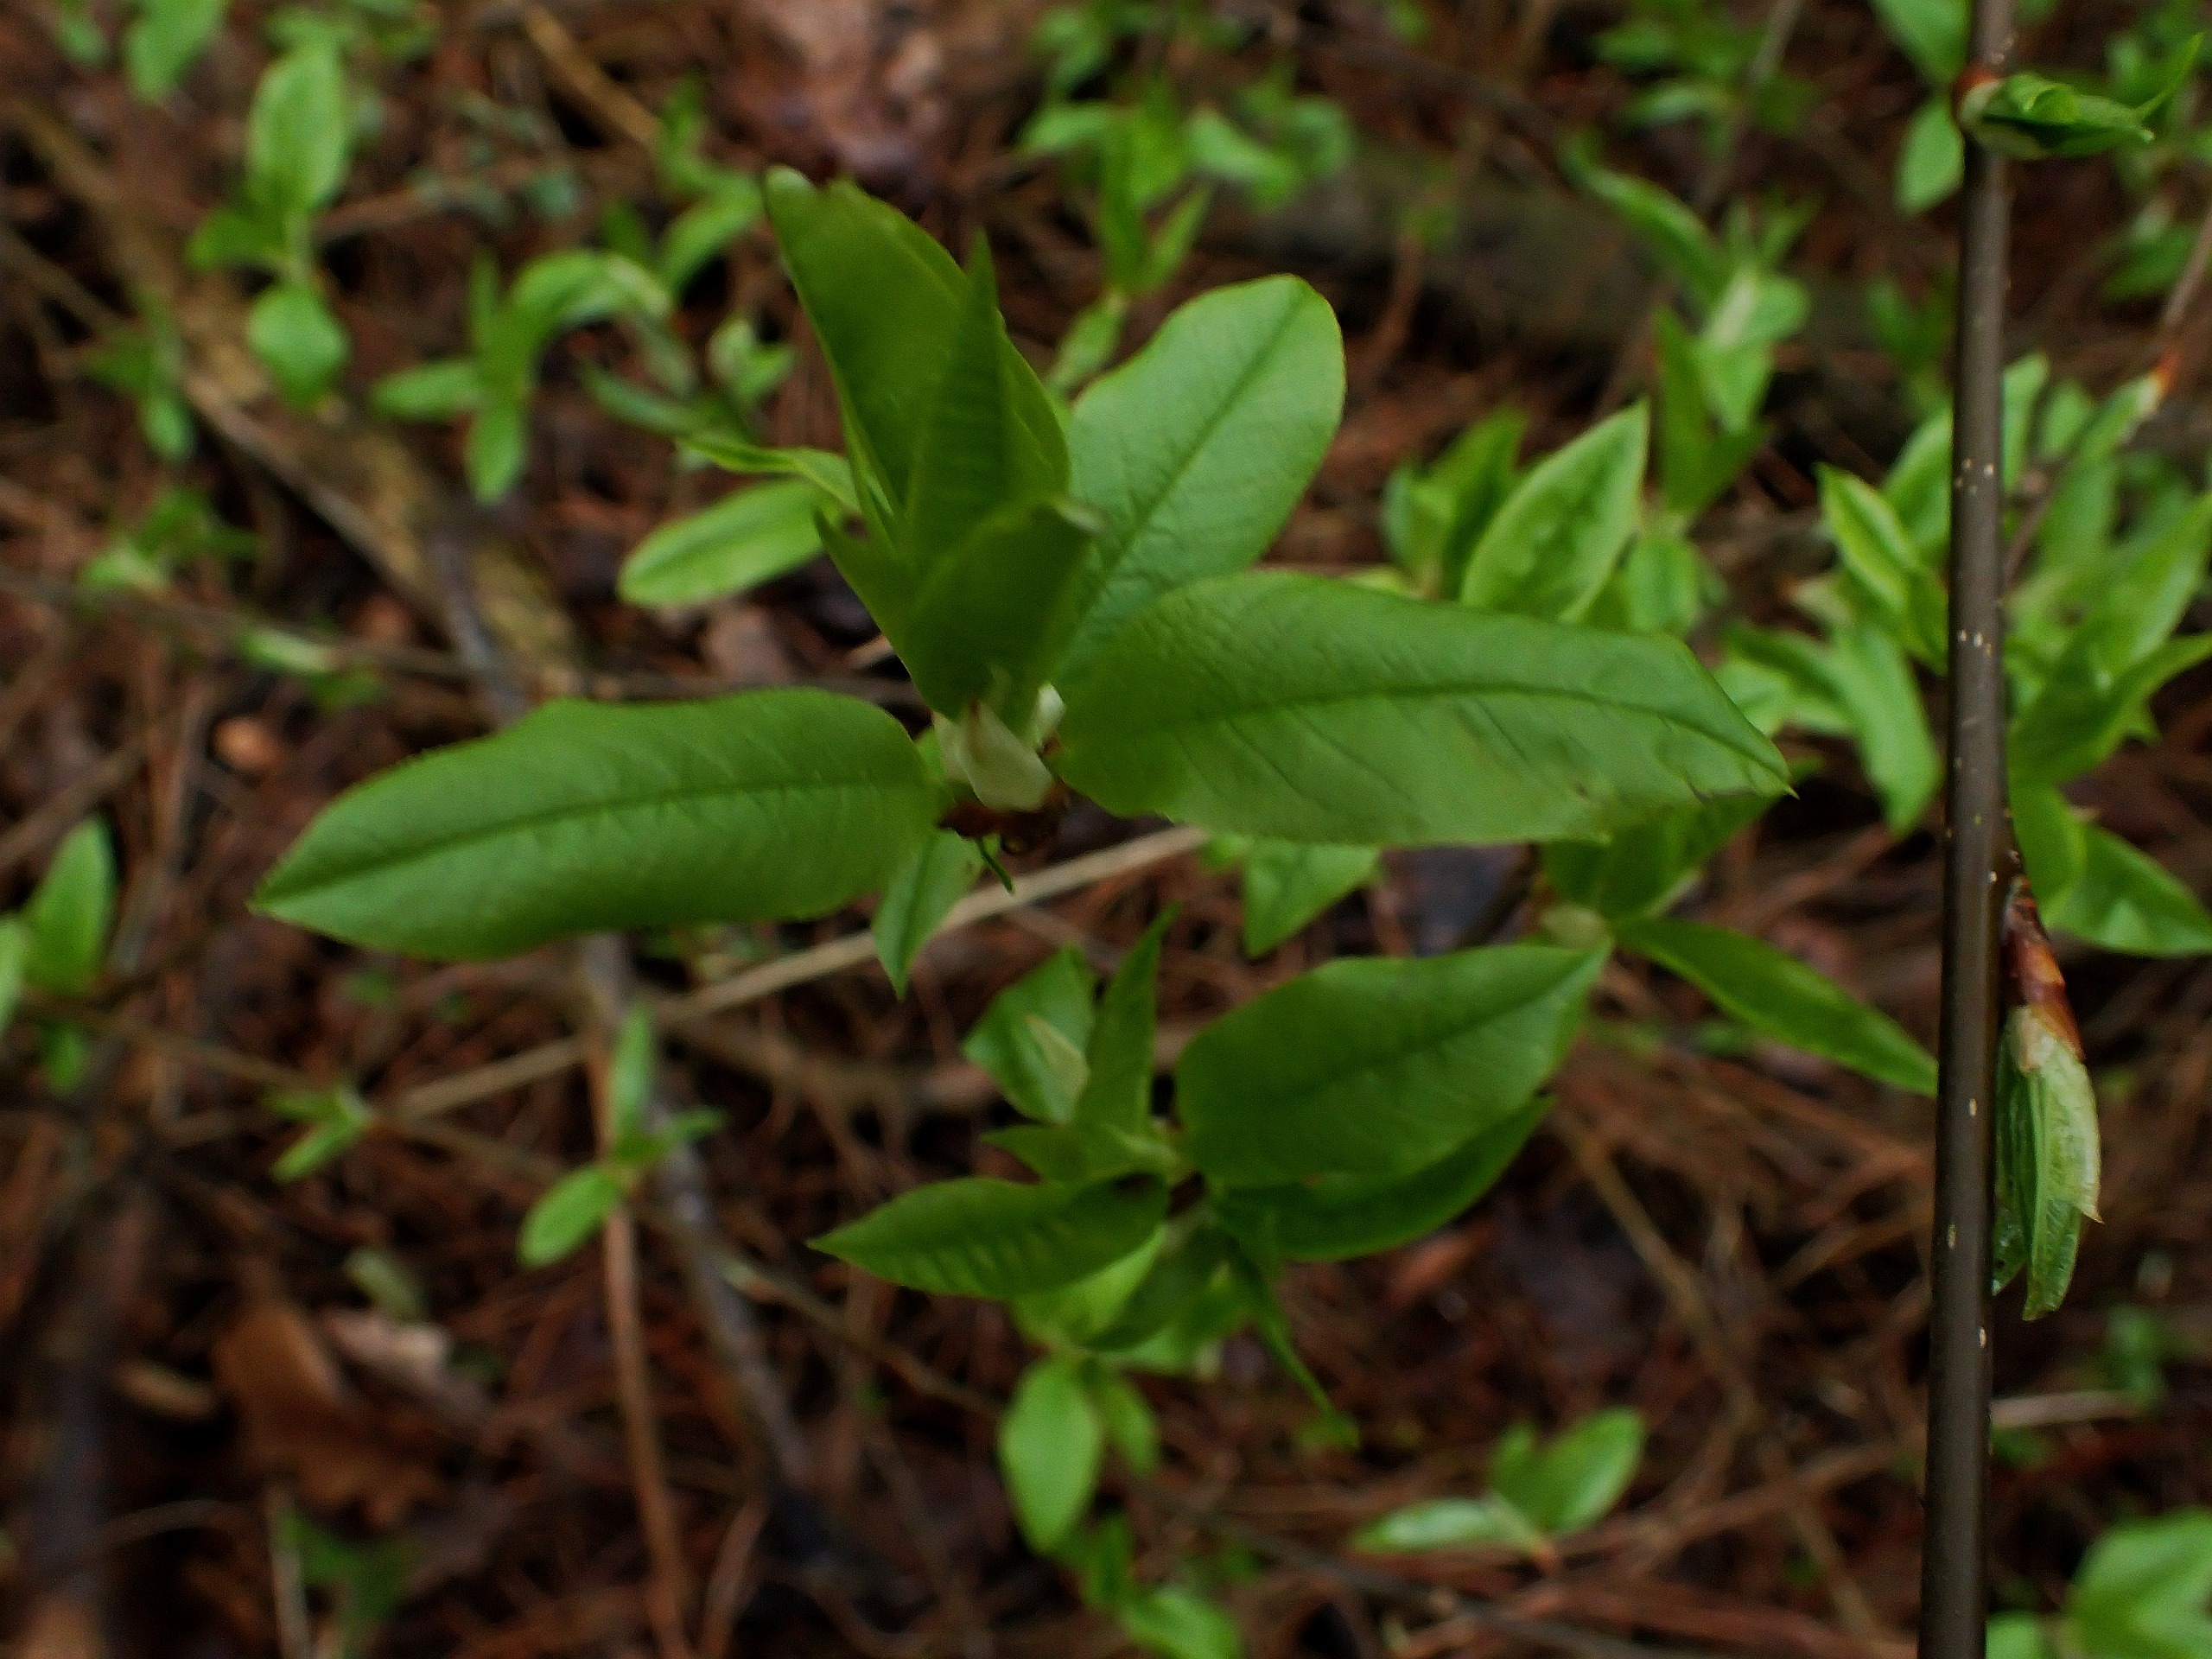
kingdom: Plantae
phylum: Tracheophyta
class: Magnoliopsida
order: Rosales
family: Rosaceae
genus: Prunus
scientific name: Prunus padus
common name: Almindelig hæg
